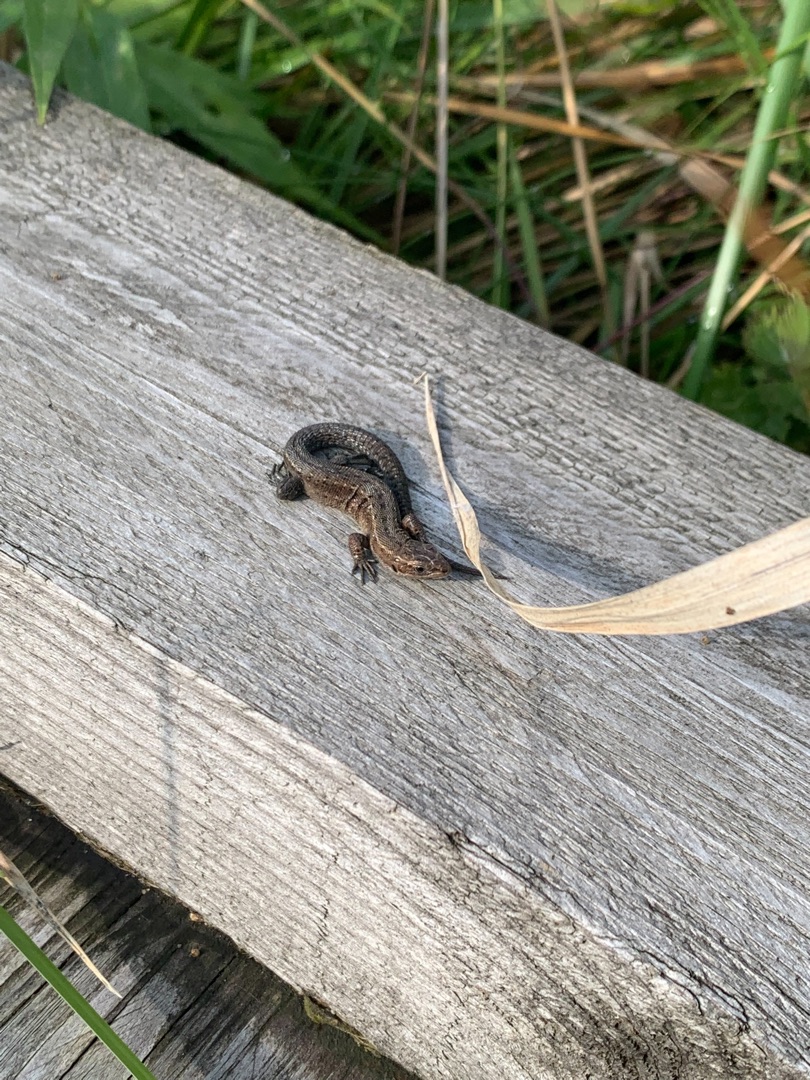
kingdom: Animalia
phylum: Chordata
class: Squamata
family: Lacertidae
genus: Zootoca
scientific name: Zootoca vivipara
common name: Skovfirben
